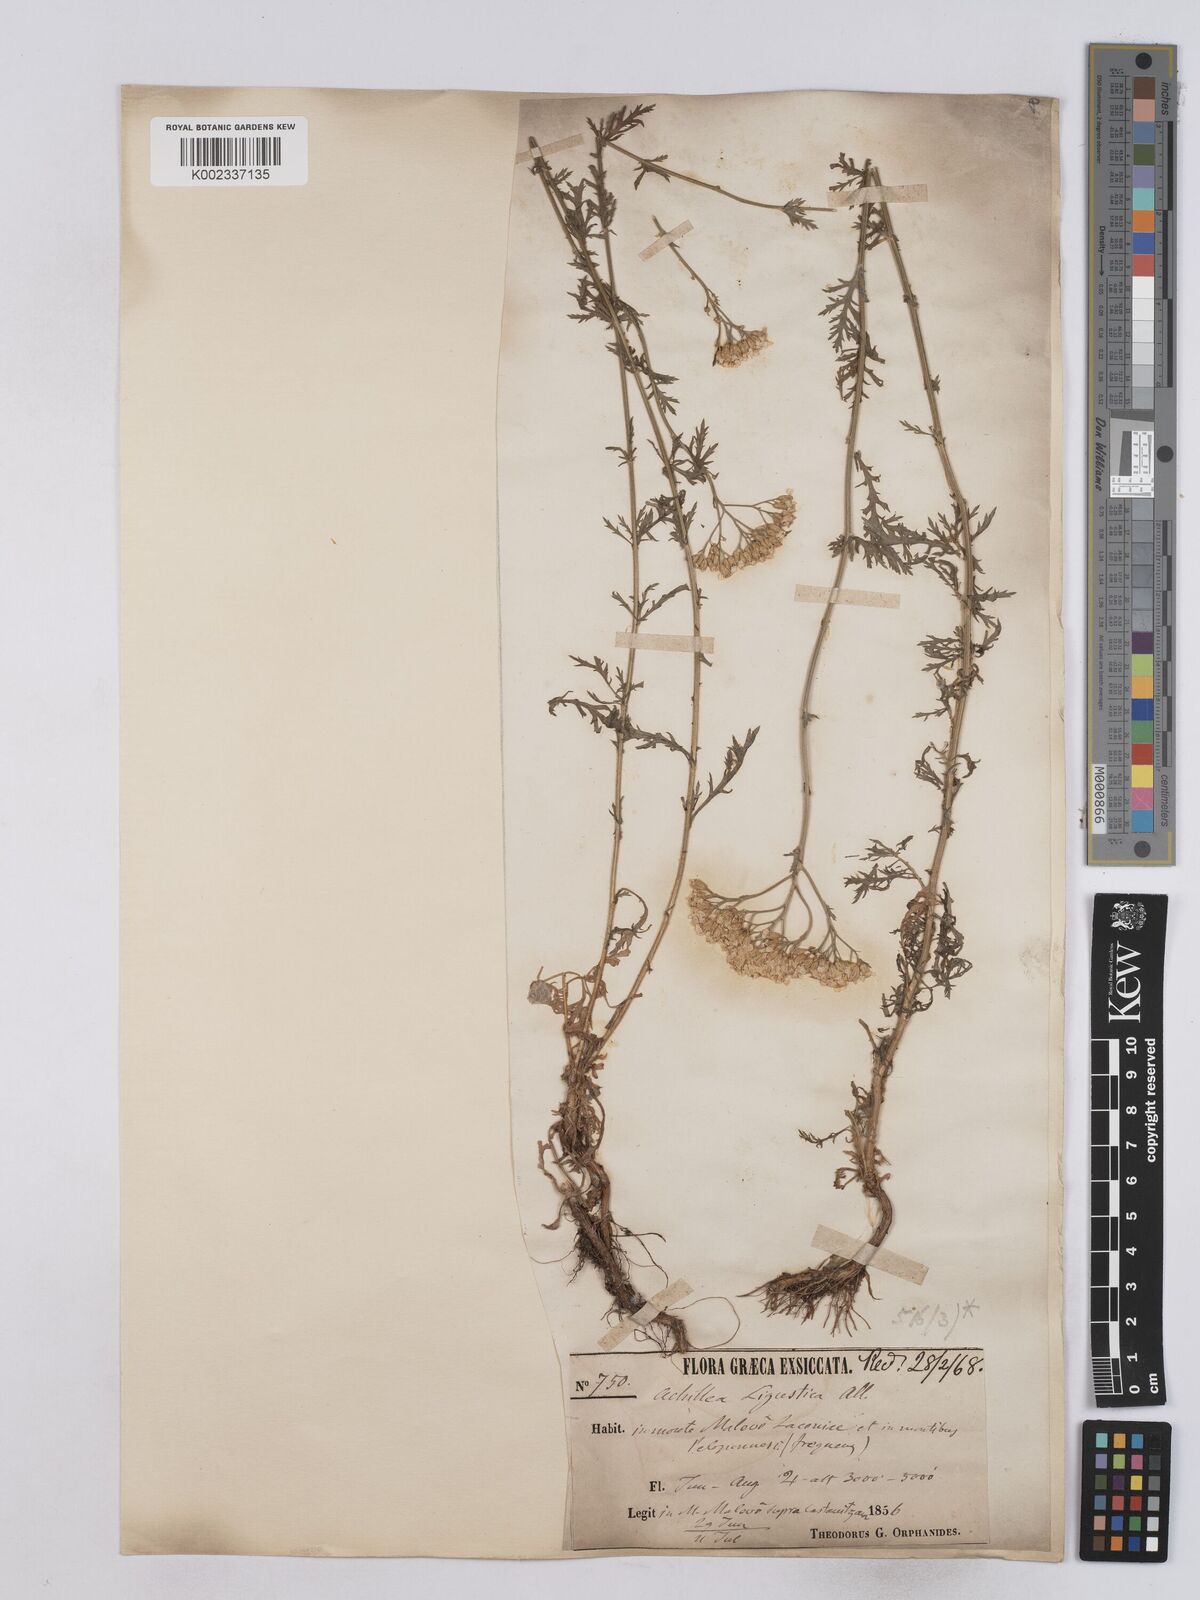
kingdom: Plantae
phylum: Tracheophyta
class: Magnoliopsida
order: Asterales
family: Asteraceae
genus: Achillea
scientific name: Achillea ligustica
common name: Southern yarrow
